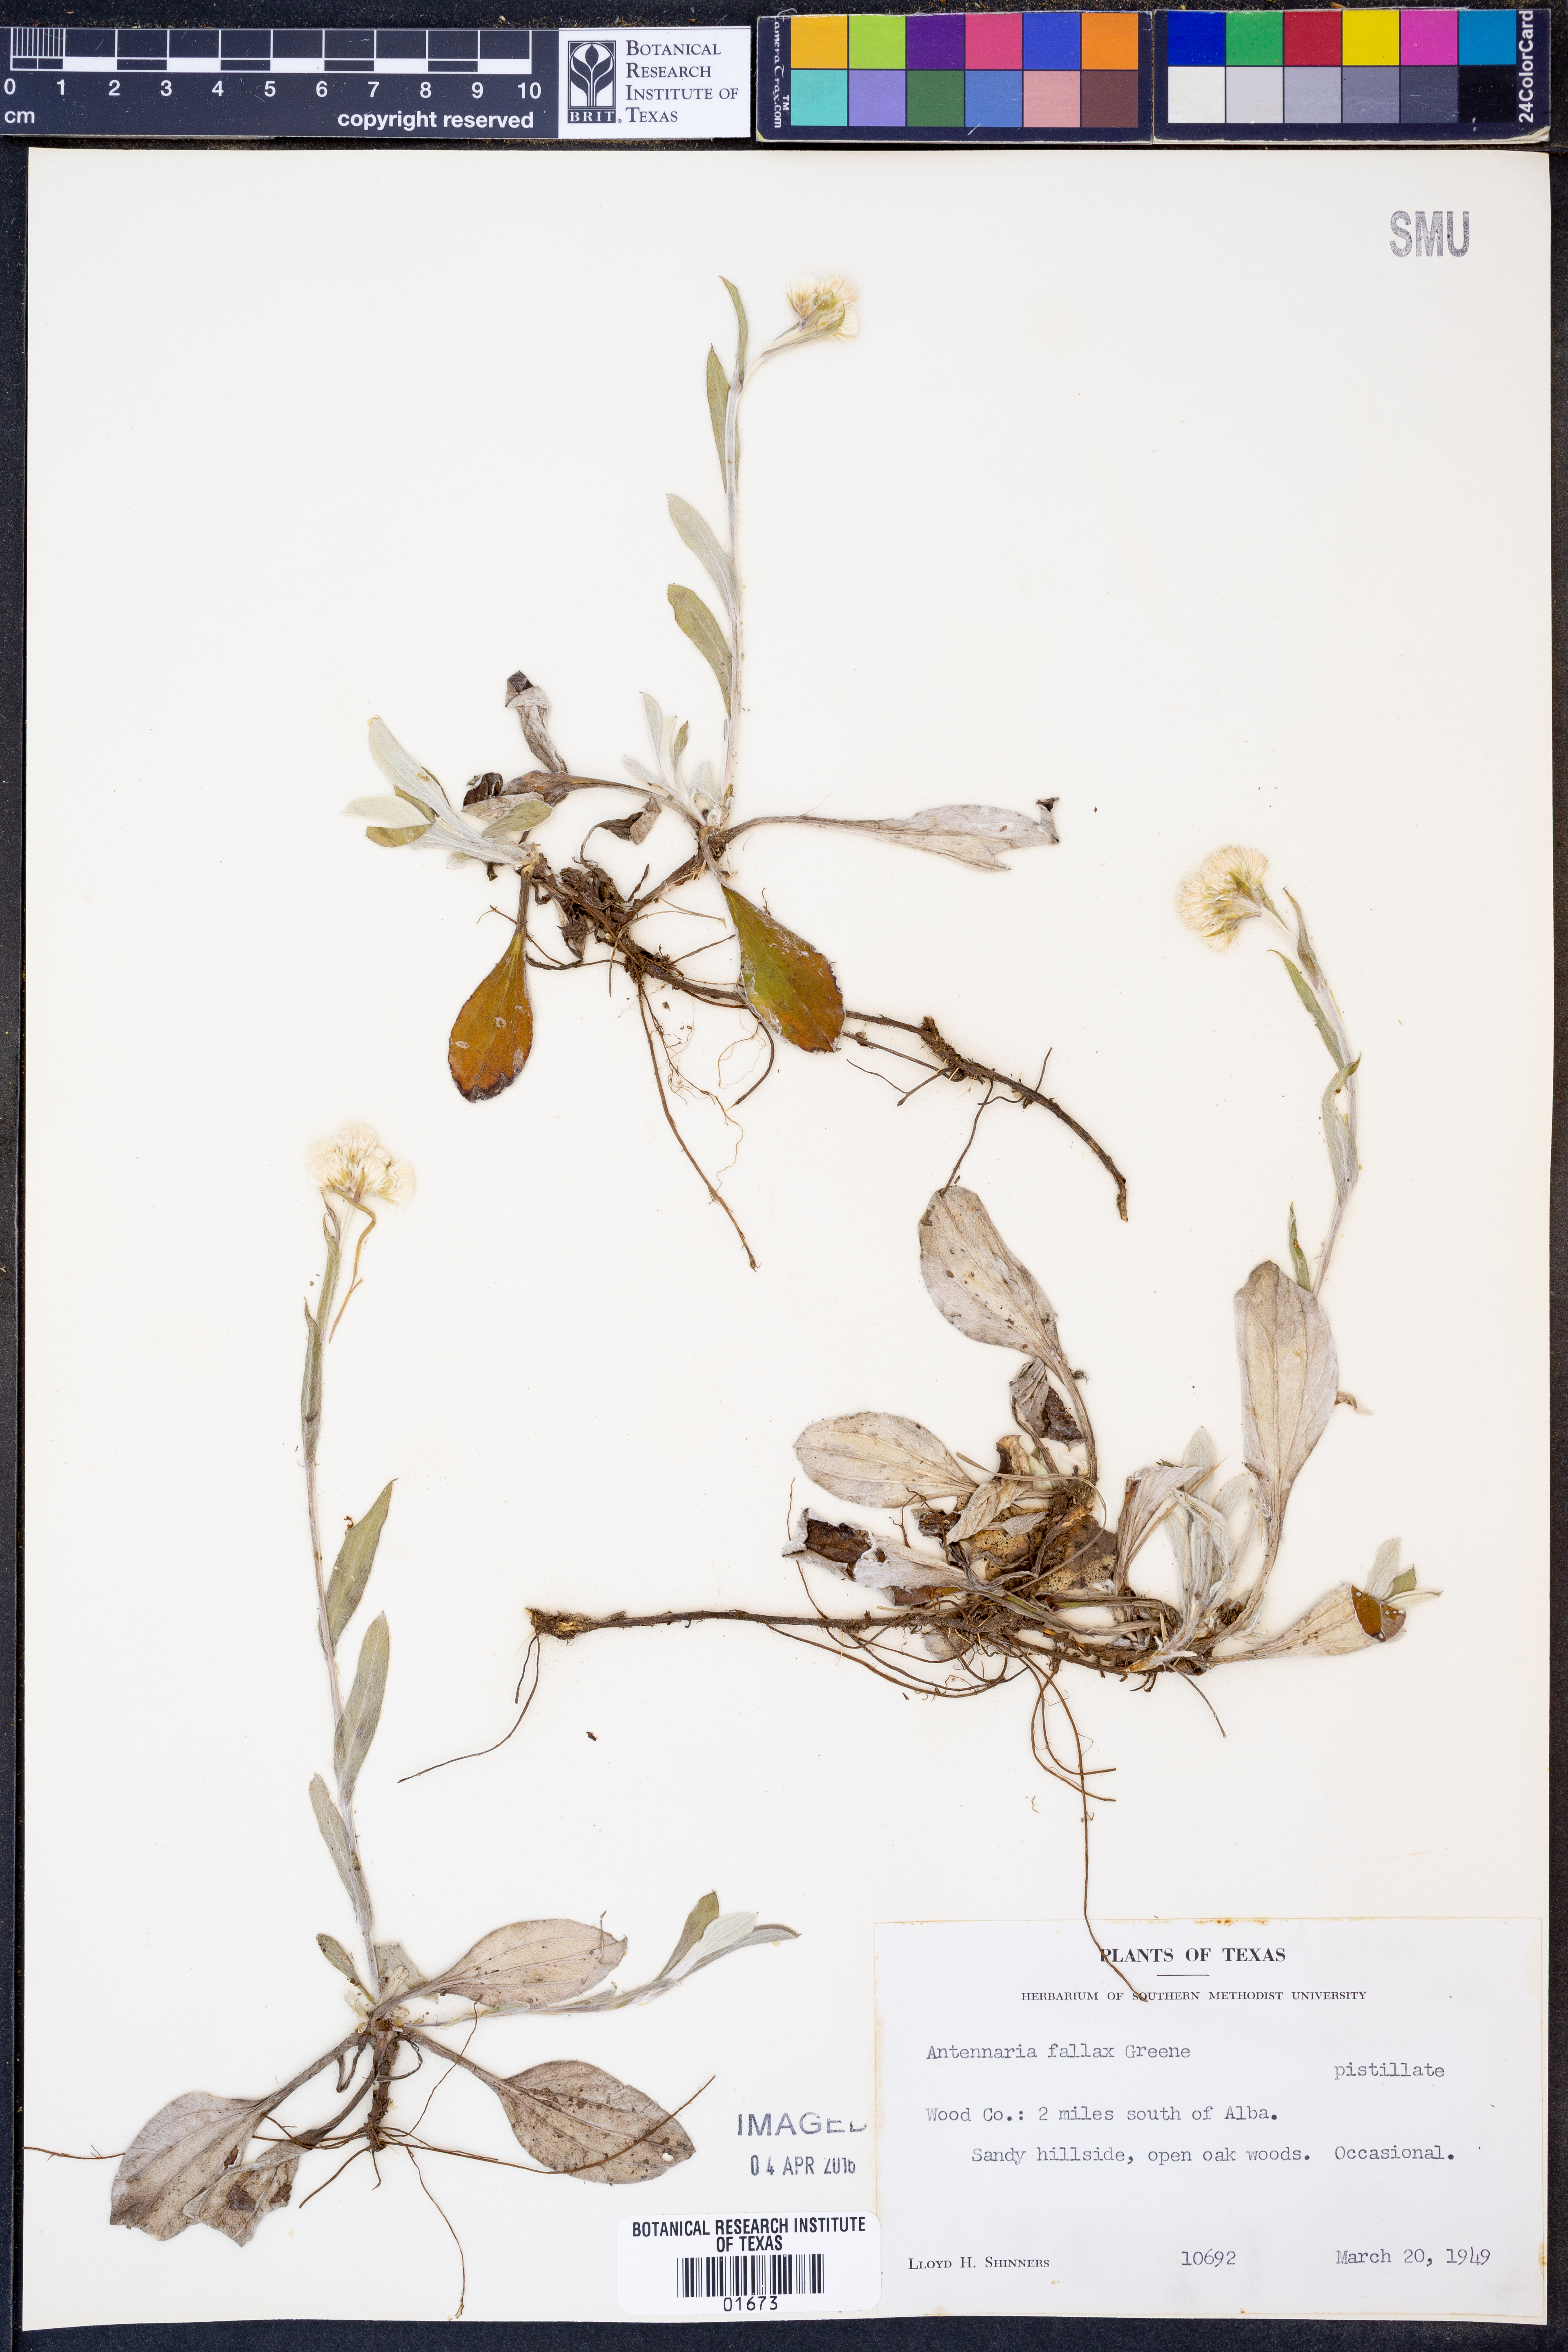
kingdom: Plantae
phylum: Tracheophyta
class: Magnoliopsida
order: Asterales
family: Asteraceae
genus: Antennaria
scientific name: Antennaria parlinii
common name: Parlin's pussytoes
